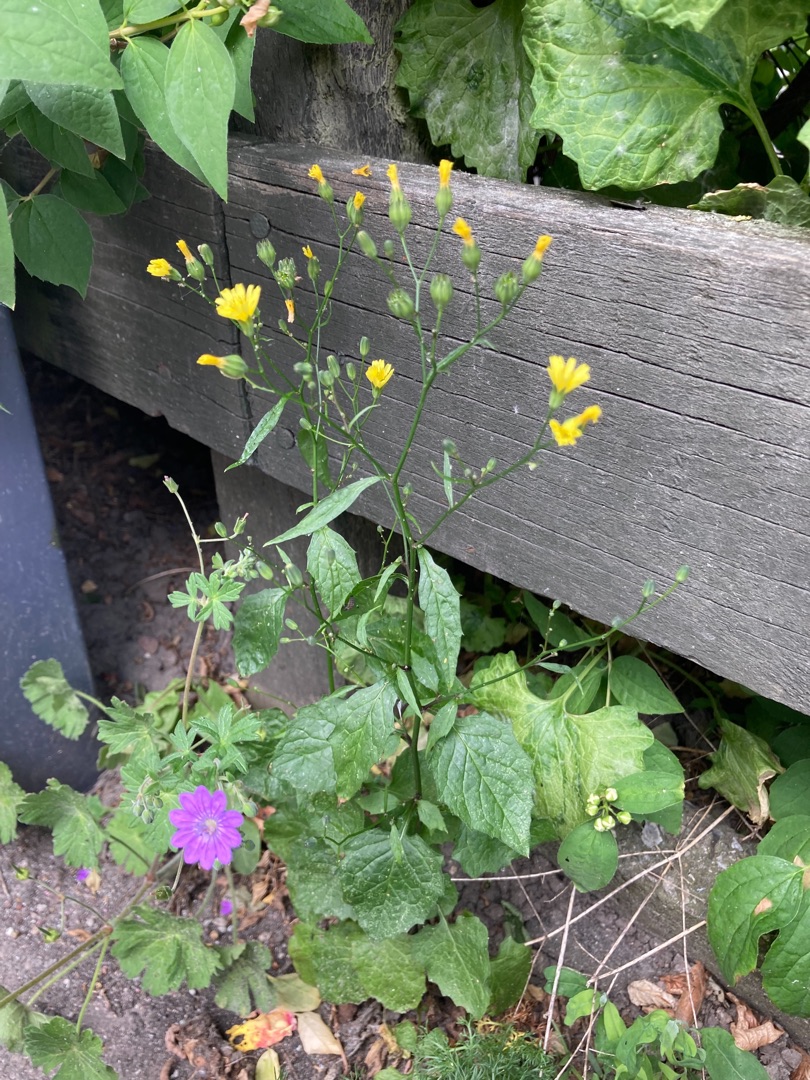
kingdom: Plantae
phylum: Tracheophyta
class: Magnoliopsida
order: Asterales
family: Asteraceae
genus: Lapsana
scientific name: Lapsana communis
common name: Haremad
